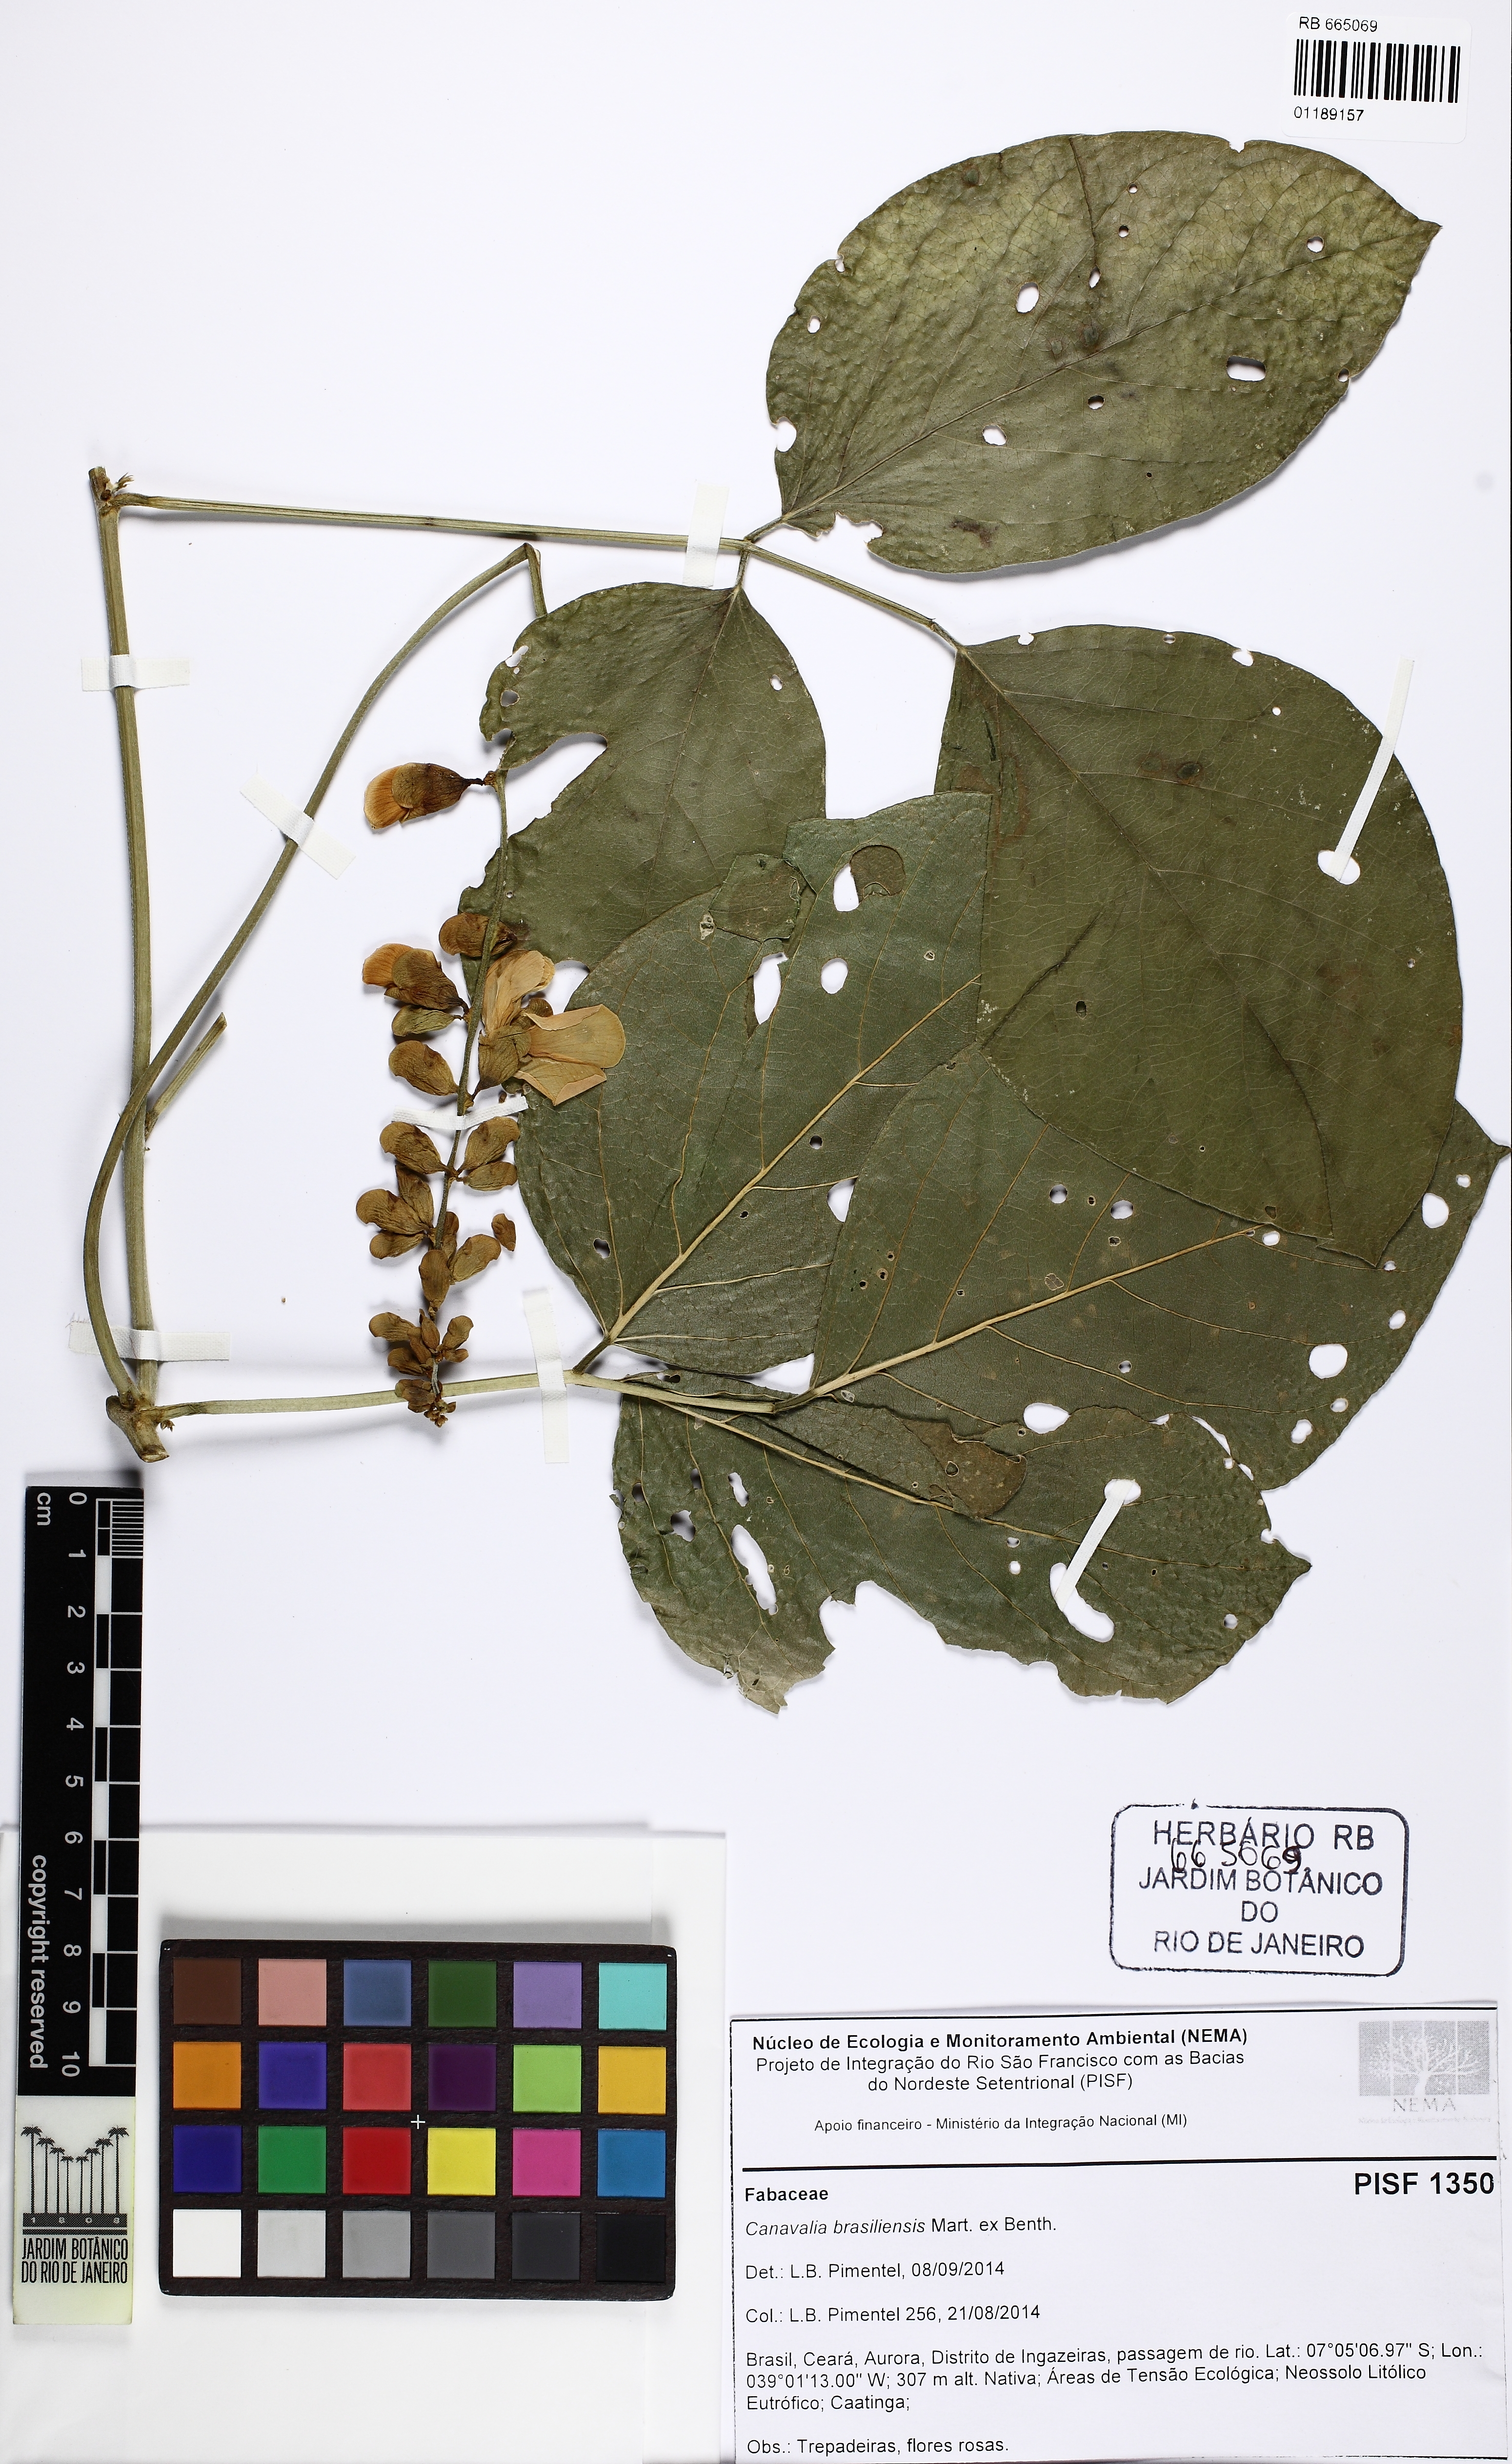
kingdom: Plantae
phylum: Tracheophyta
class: Magnoliopsida
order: Fabales
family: Fabaceae
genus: Canavalia
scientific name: Canavalia brasiliensis
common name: Barbicou-bean
